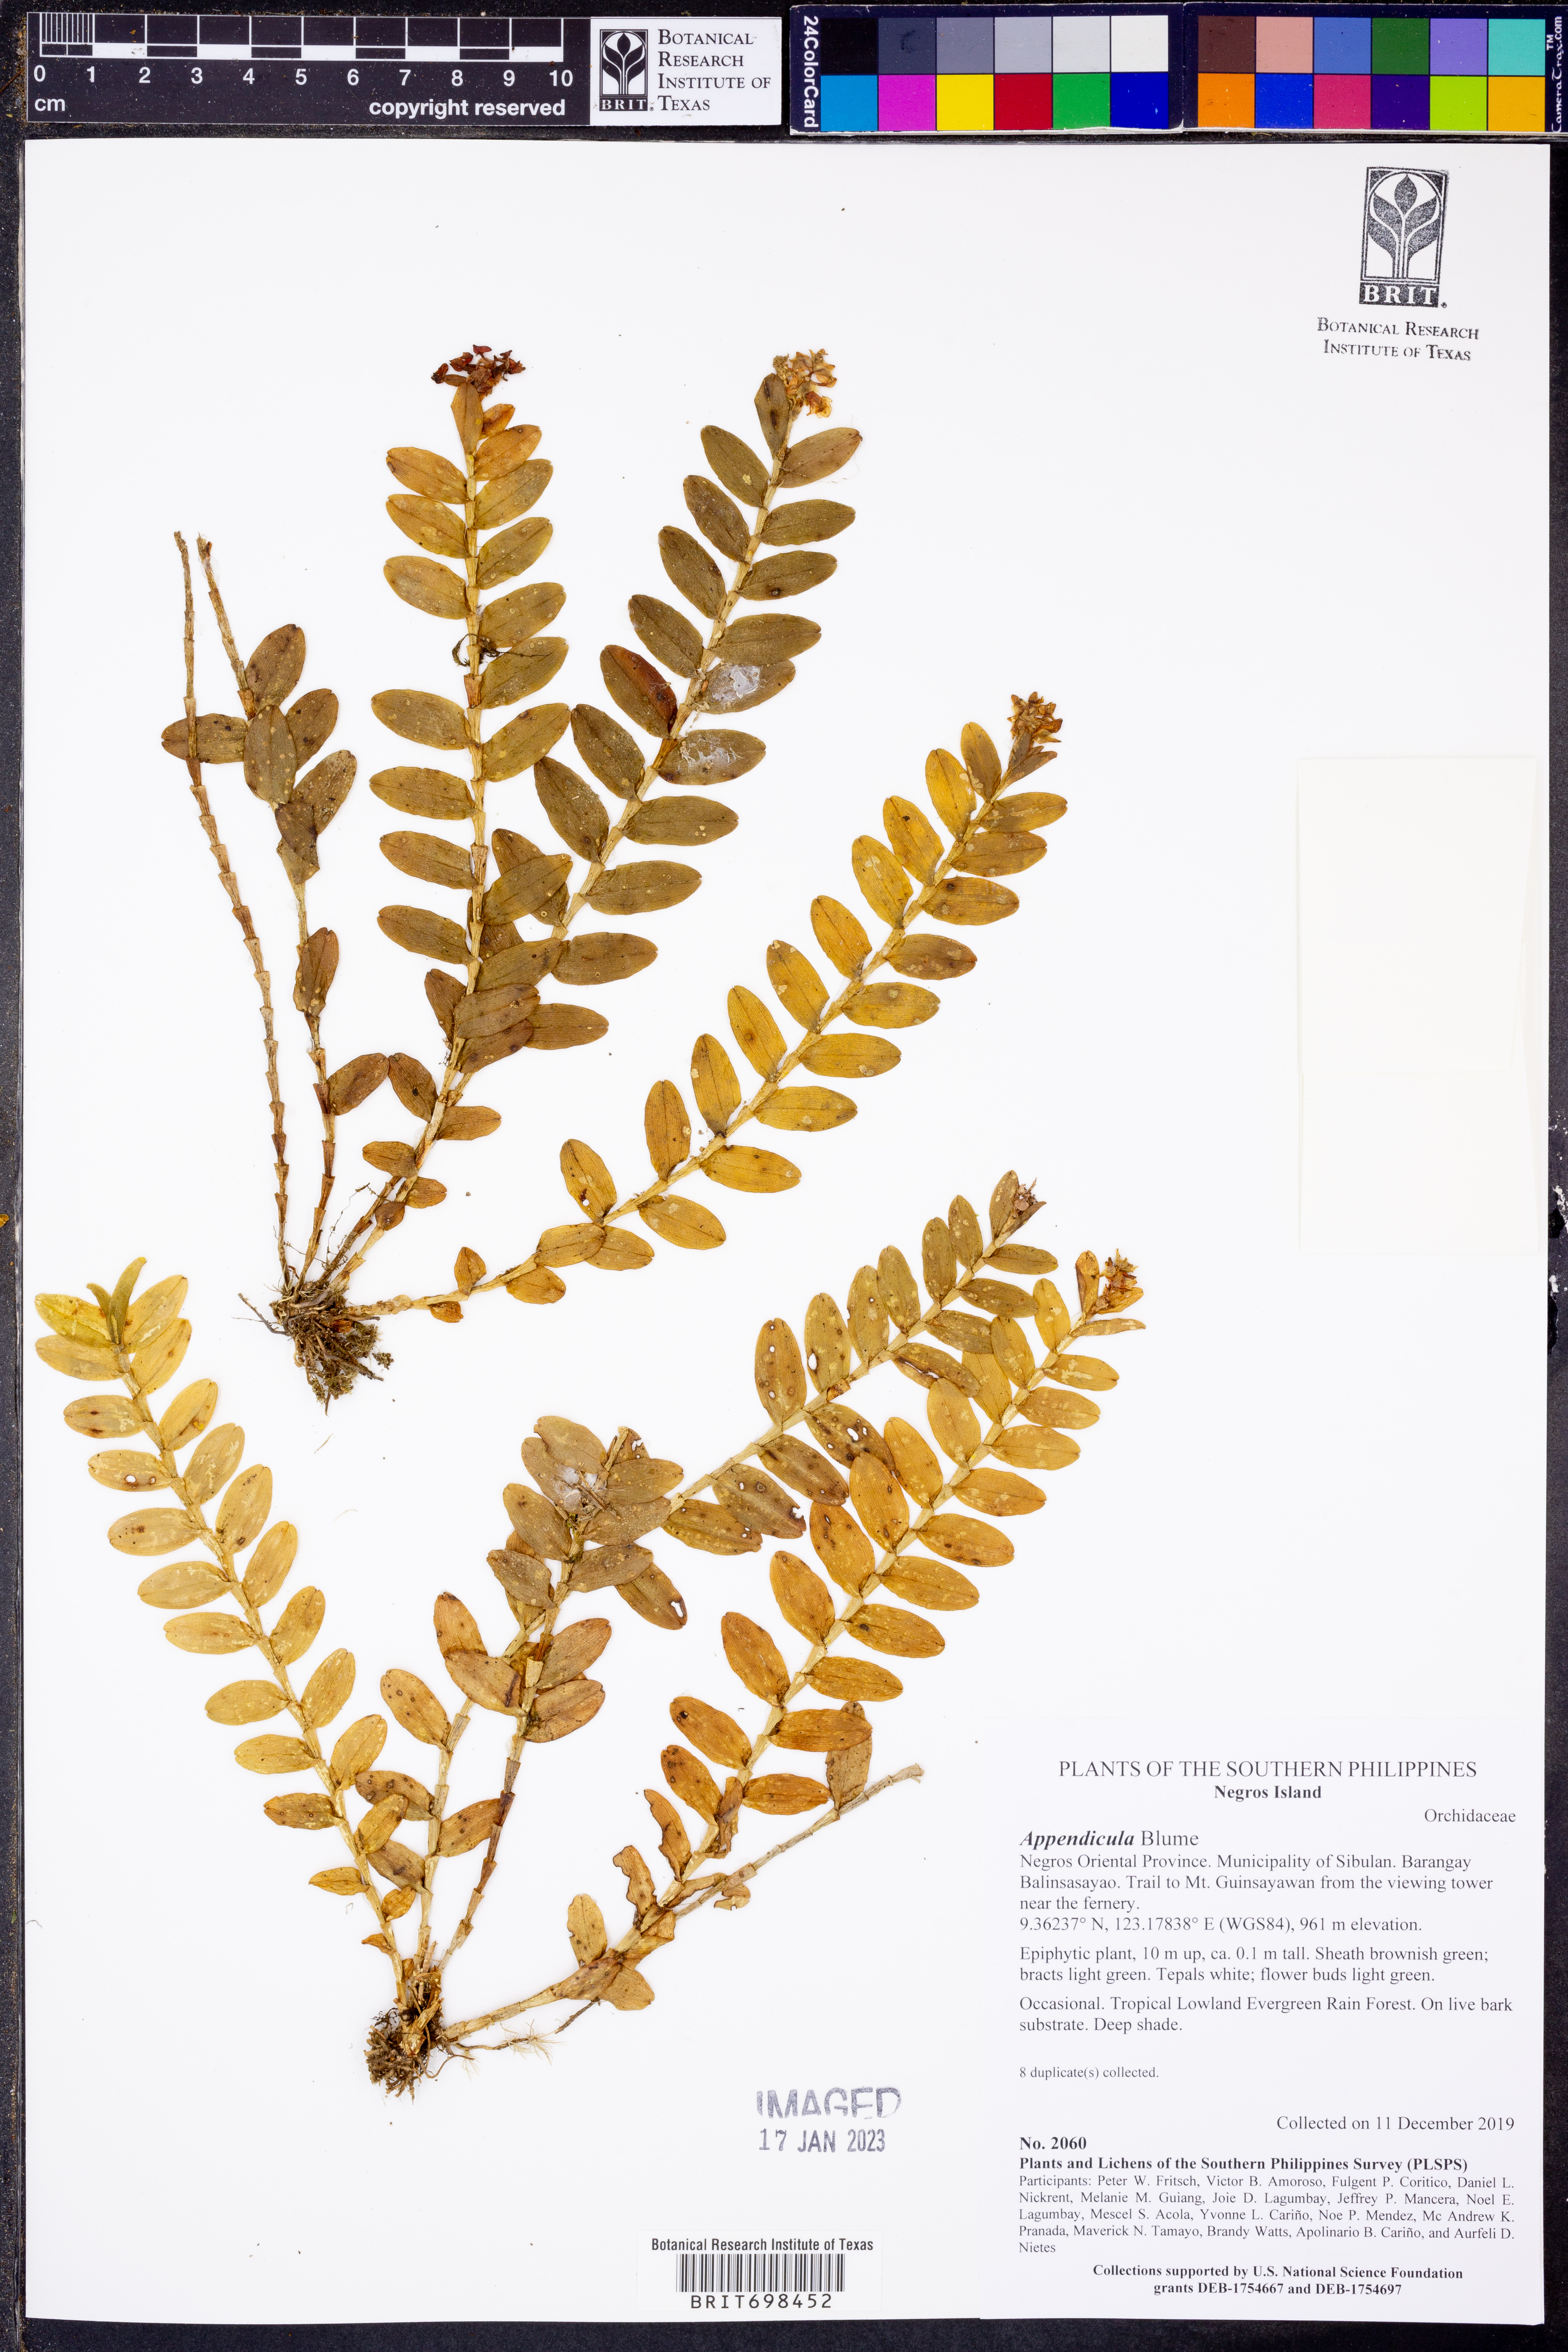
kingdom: Plantae
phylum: Tracheophyta
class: Liliopsida
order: Asparagales
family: Orchidaceae
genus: Appendicula
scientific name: Appendicula
